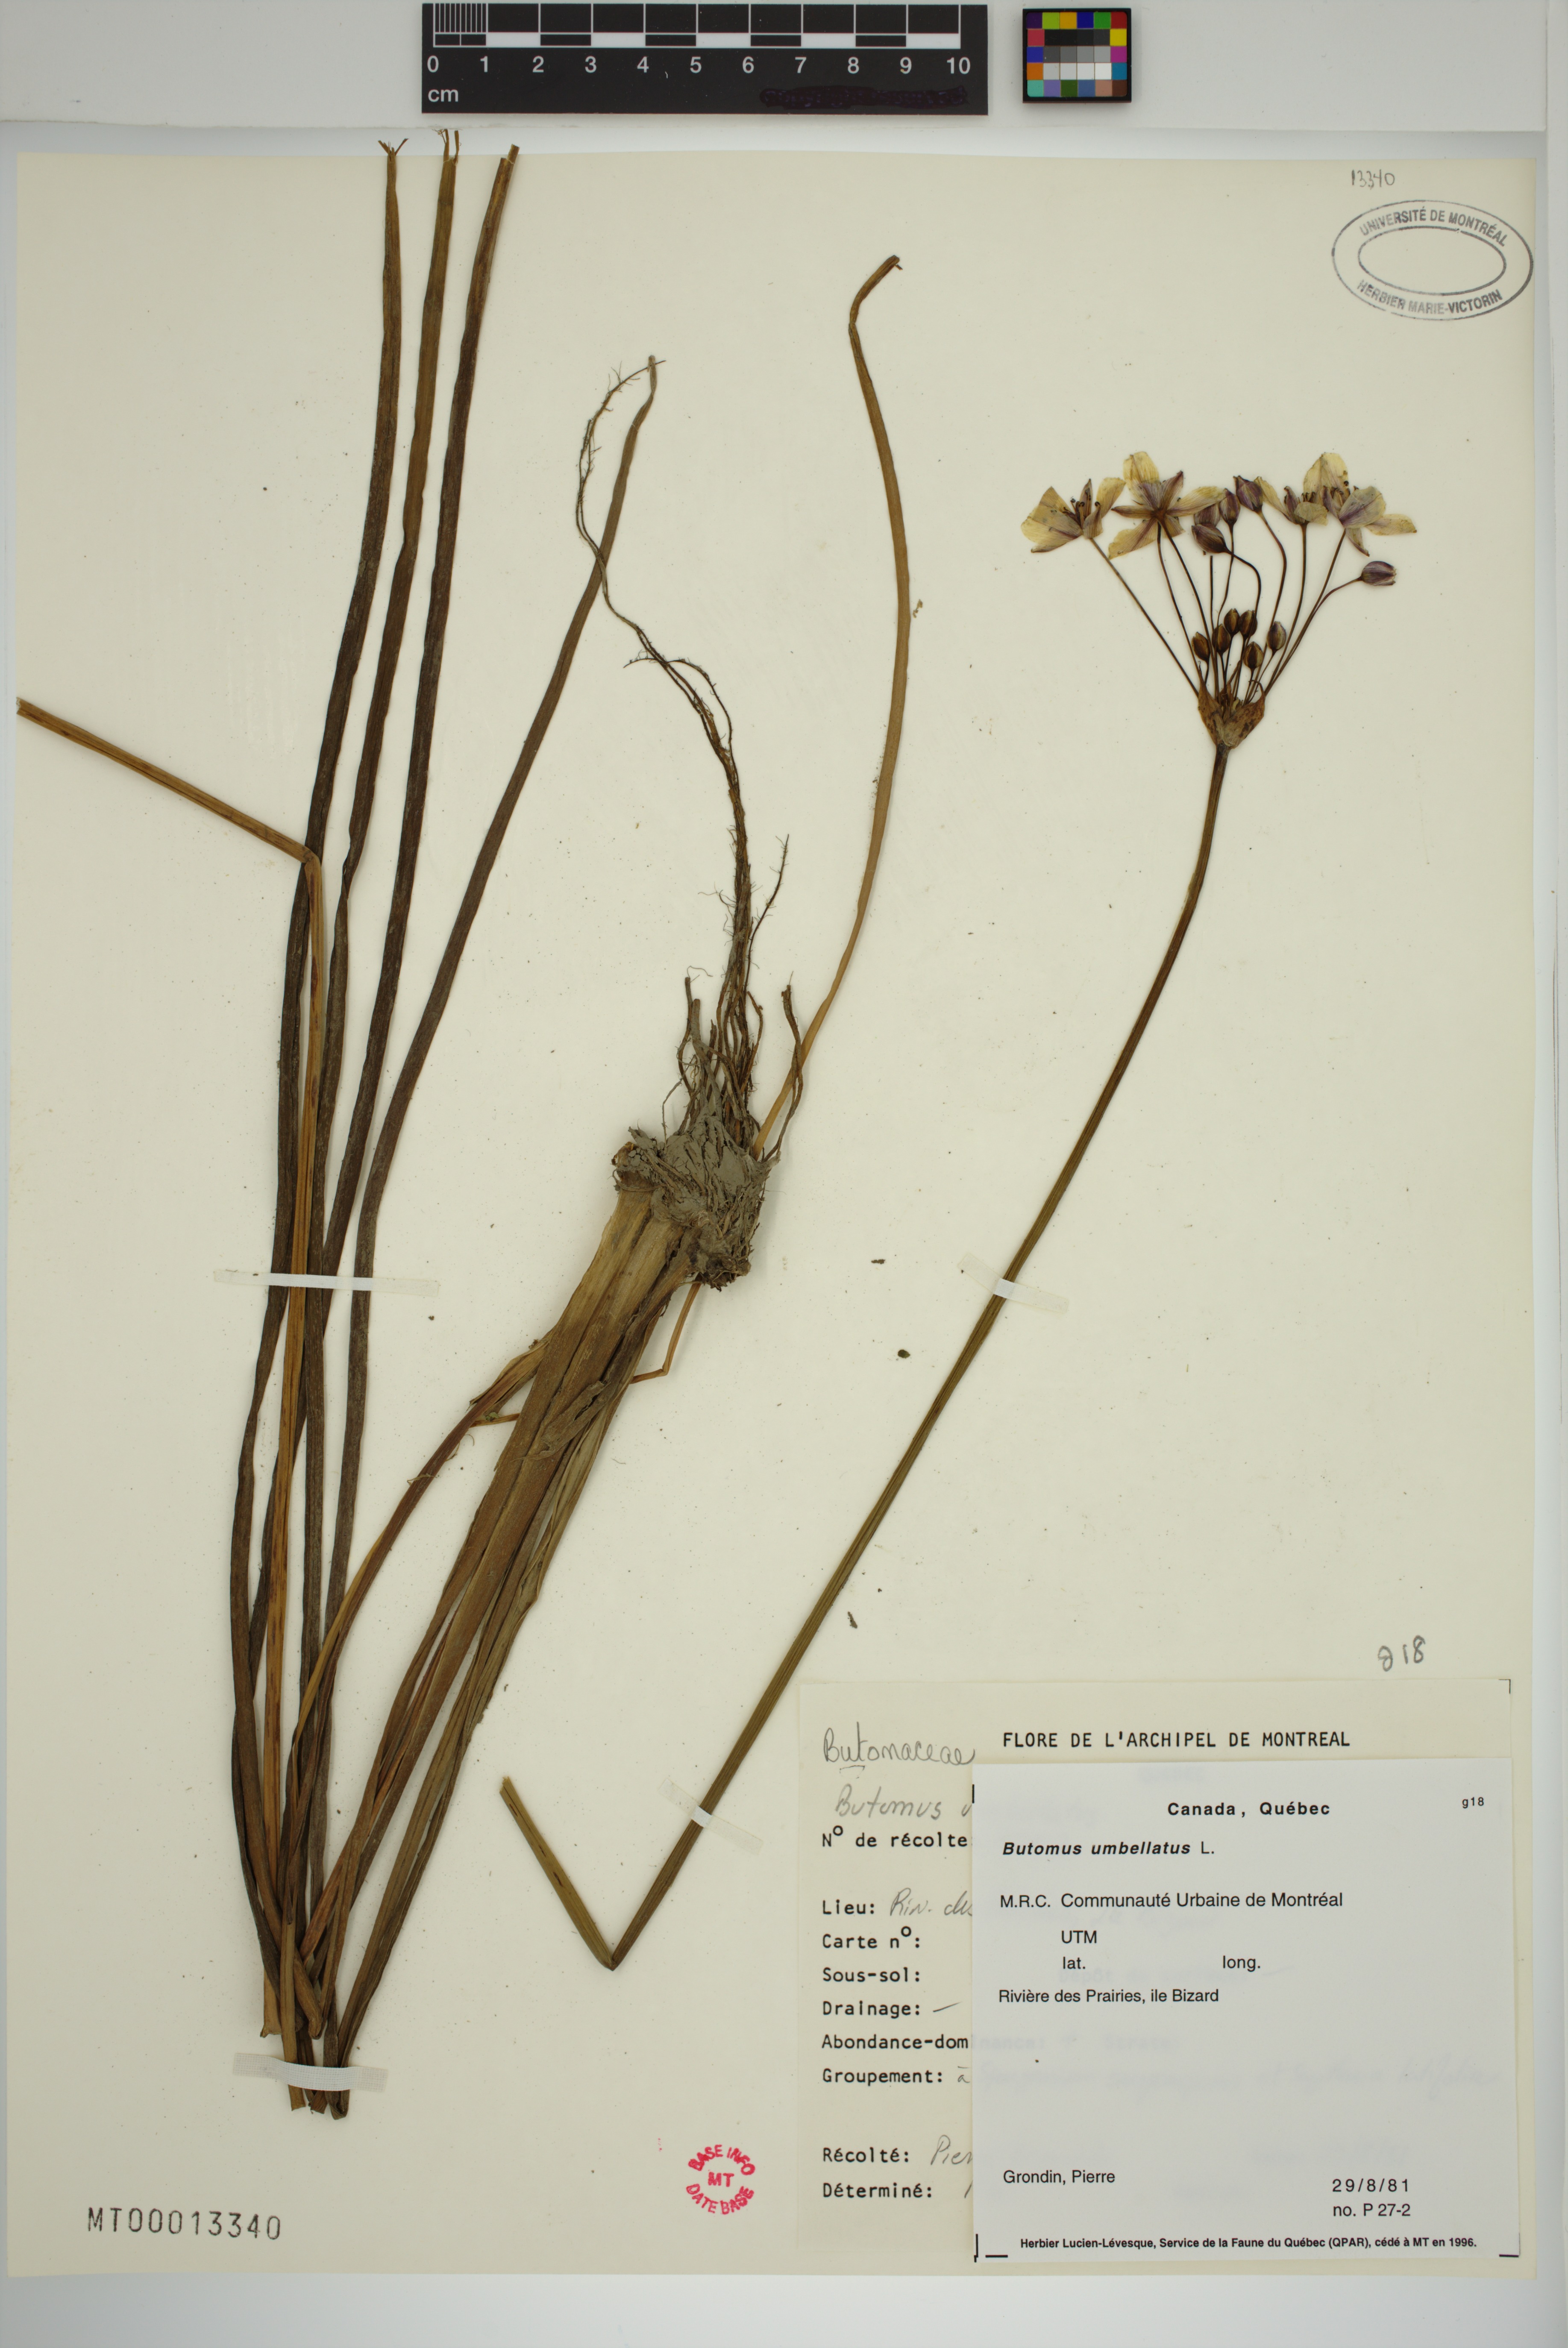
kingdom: Plantae
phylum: Tracheophyta
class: Liliopsida
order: Alismatales
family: Butomaceae
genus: Butomus
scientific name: Butomus umbellatus
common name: Flowering-rush
